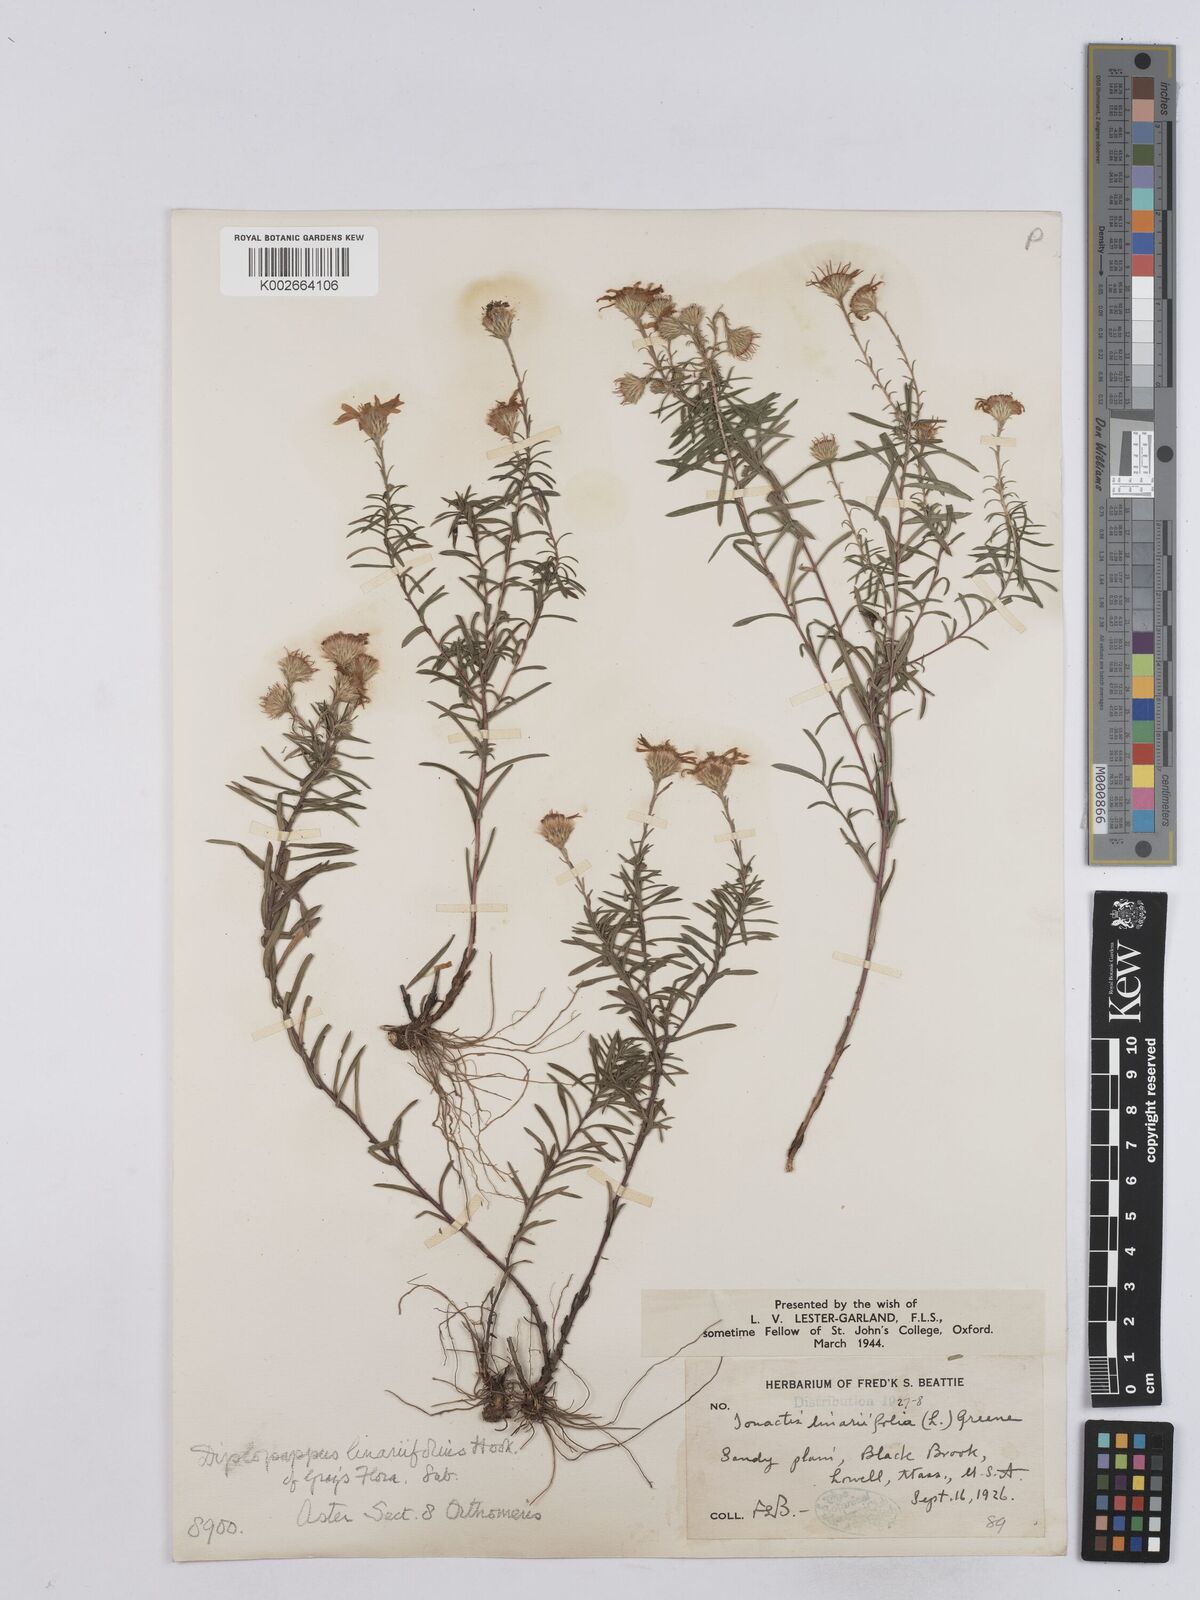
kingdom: Plantae
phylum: Tracheophyta
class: Magnoliopsida
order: Asterales
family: Asteraceae
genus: Ionactis
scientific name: Ionactis linariifolia
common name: Flax-leaf aster
